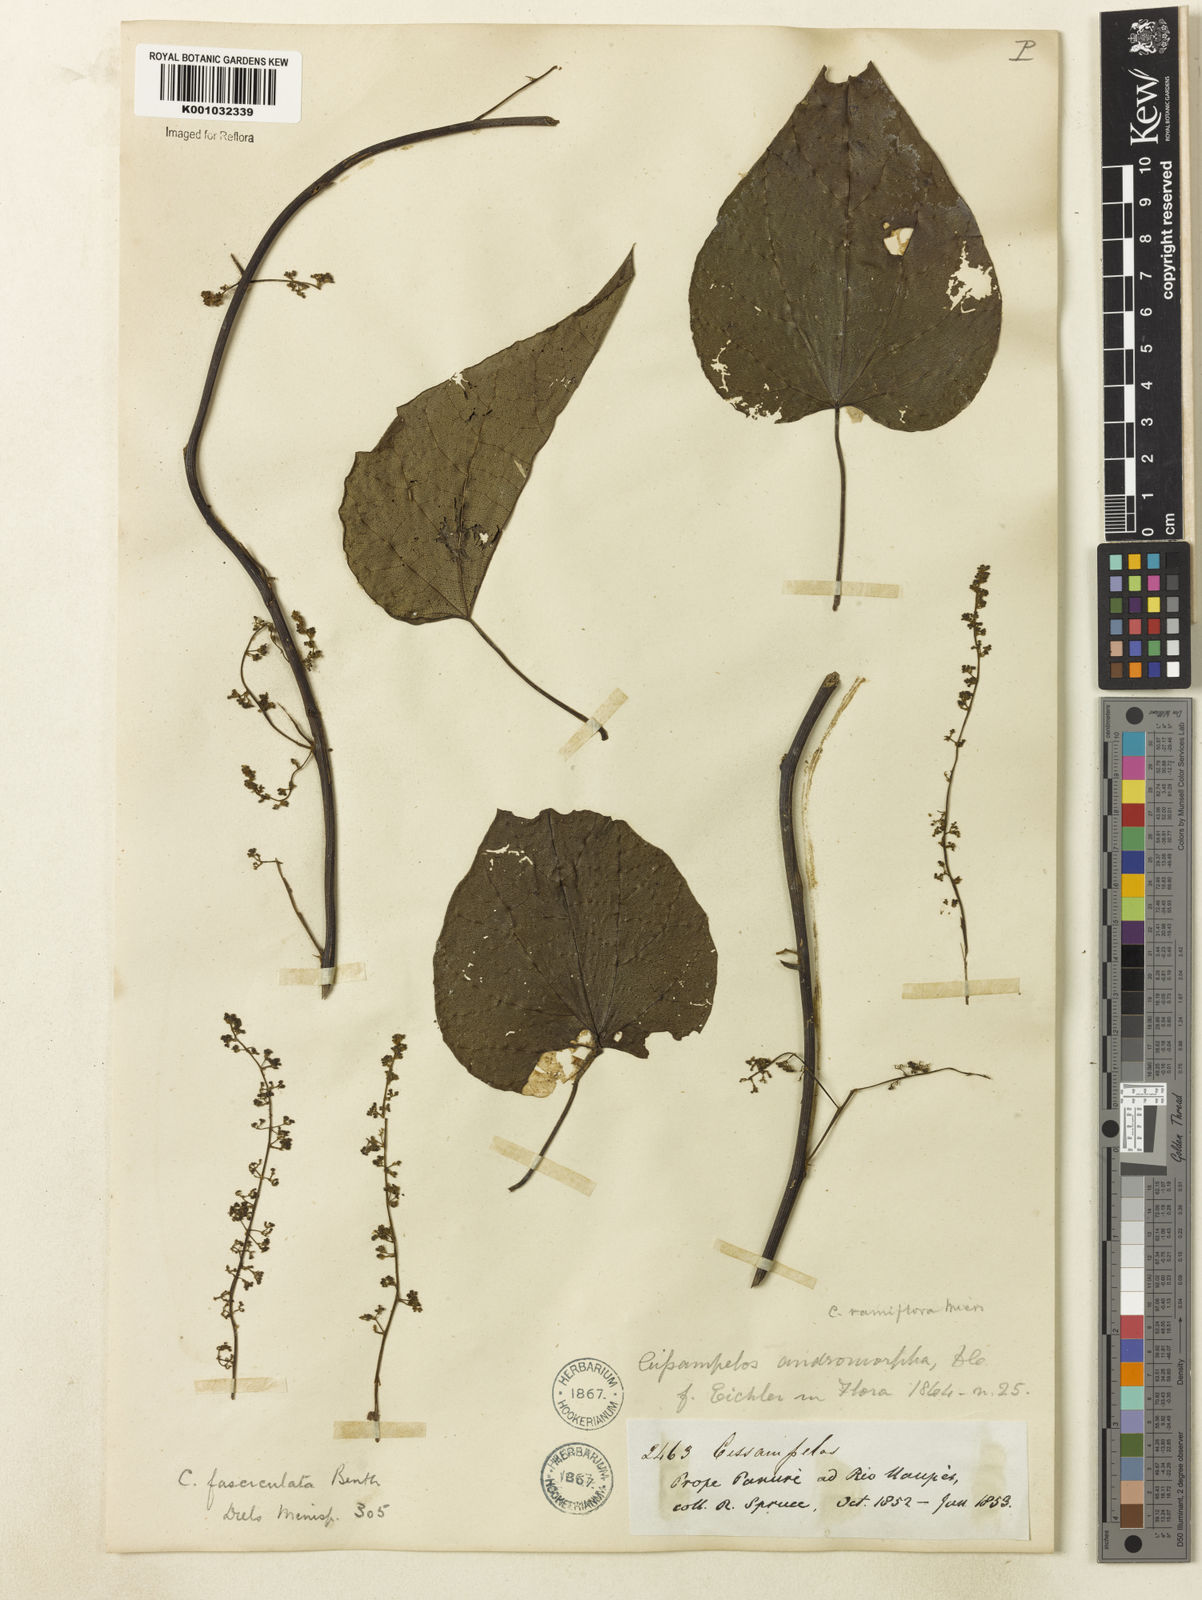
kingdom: Plantae
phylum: Tracheophyta
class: Magnoliopsida
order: Ranunculales
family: Menispermaceae
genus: Cissampelos
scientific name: Cissampelos fasciculata
